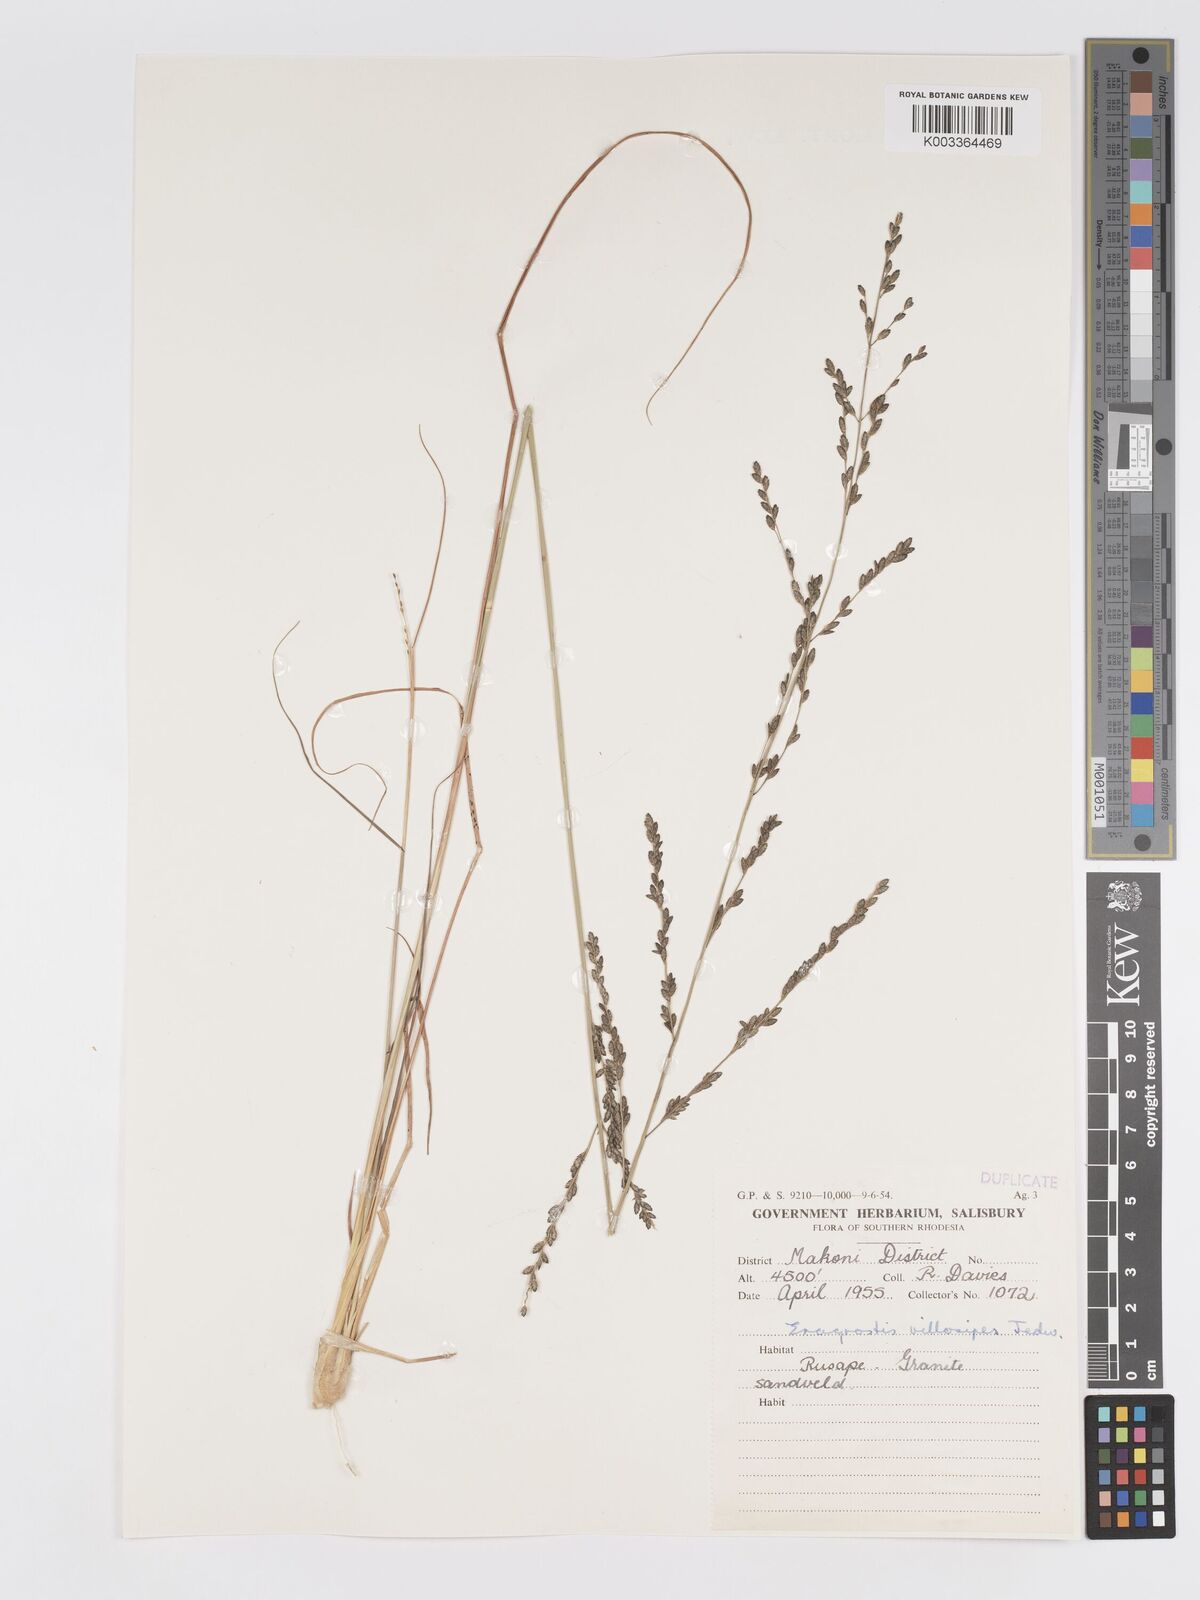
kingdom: Plantae
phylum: Tracheophyta
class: Liliopsida
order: Poales
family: Poaceae
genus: Eragrostis
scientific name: Eragrostis sclerantha
